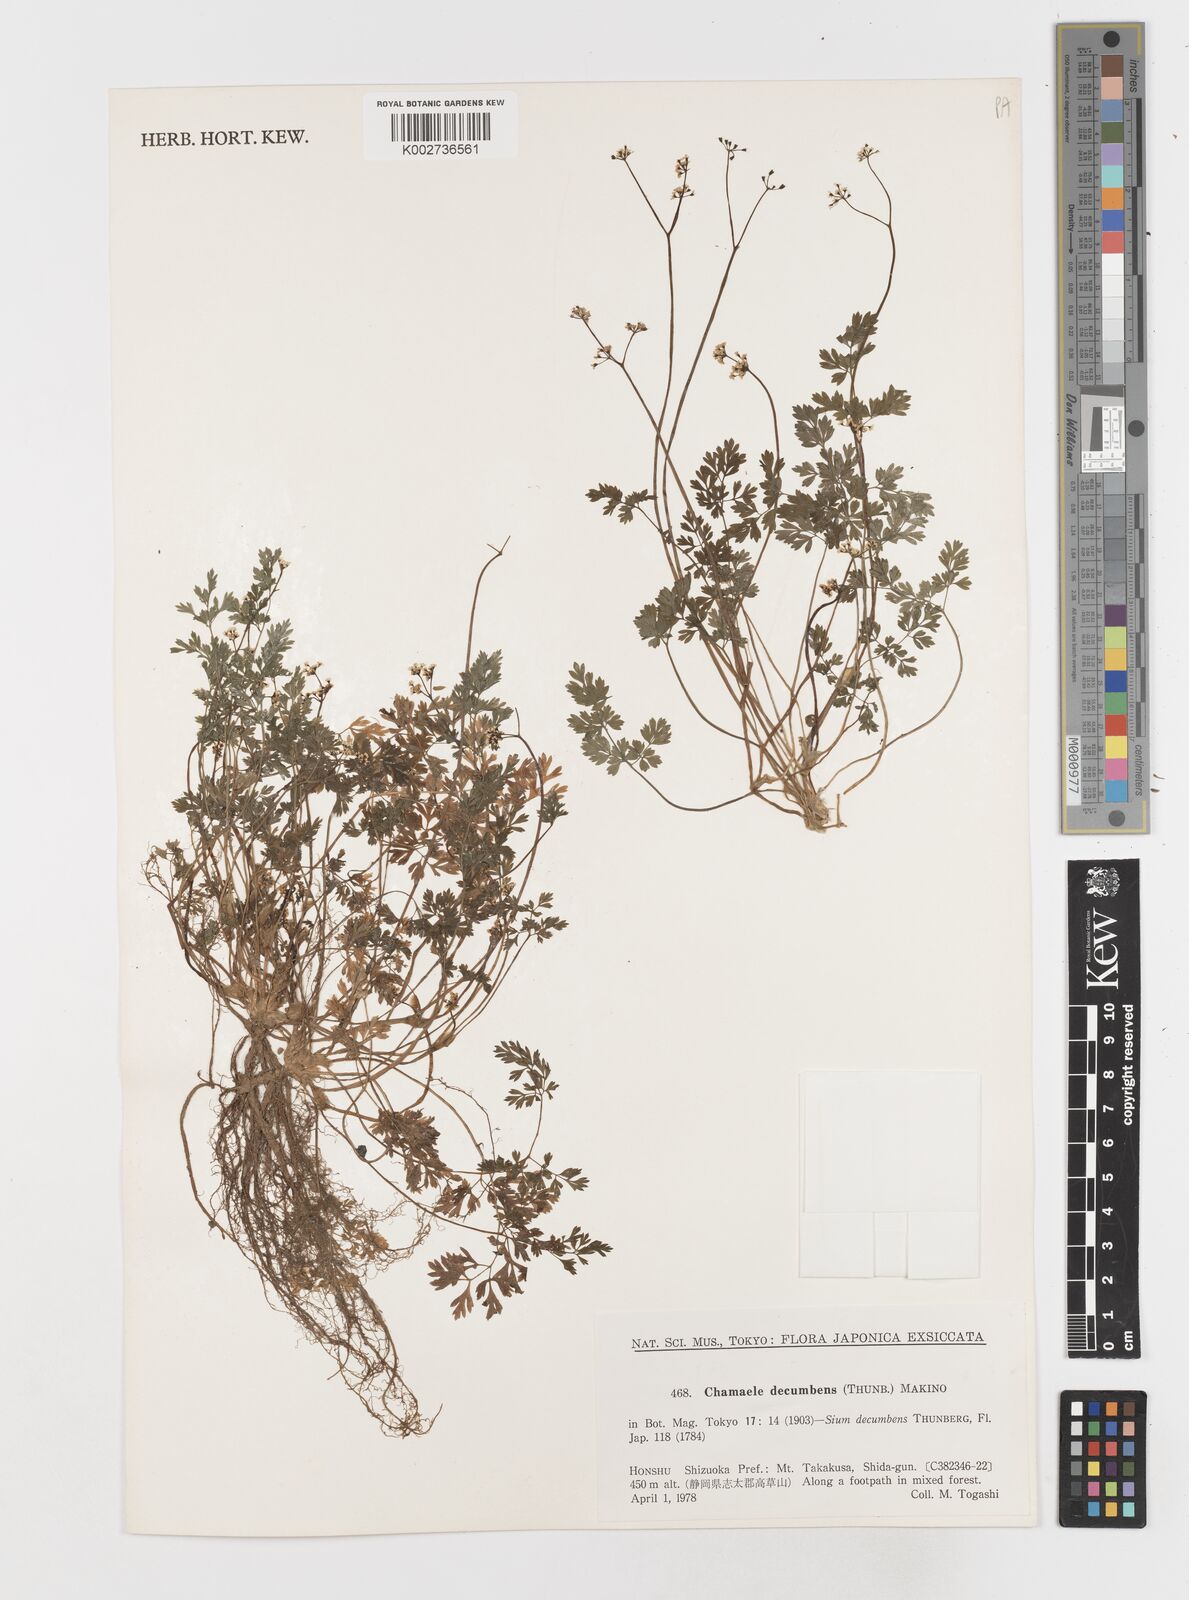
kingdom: Plantae
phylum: Tracheophyta
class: Magnoliopsida
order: Apiales
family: Apiaceae
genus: Aegopodium
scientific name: Aegopodium decumbens
